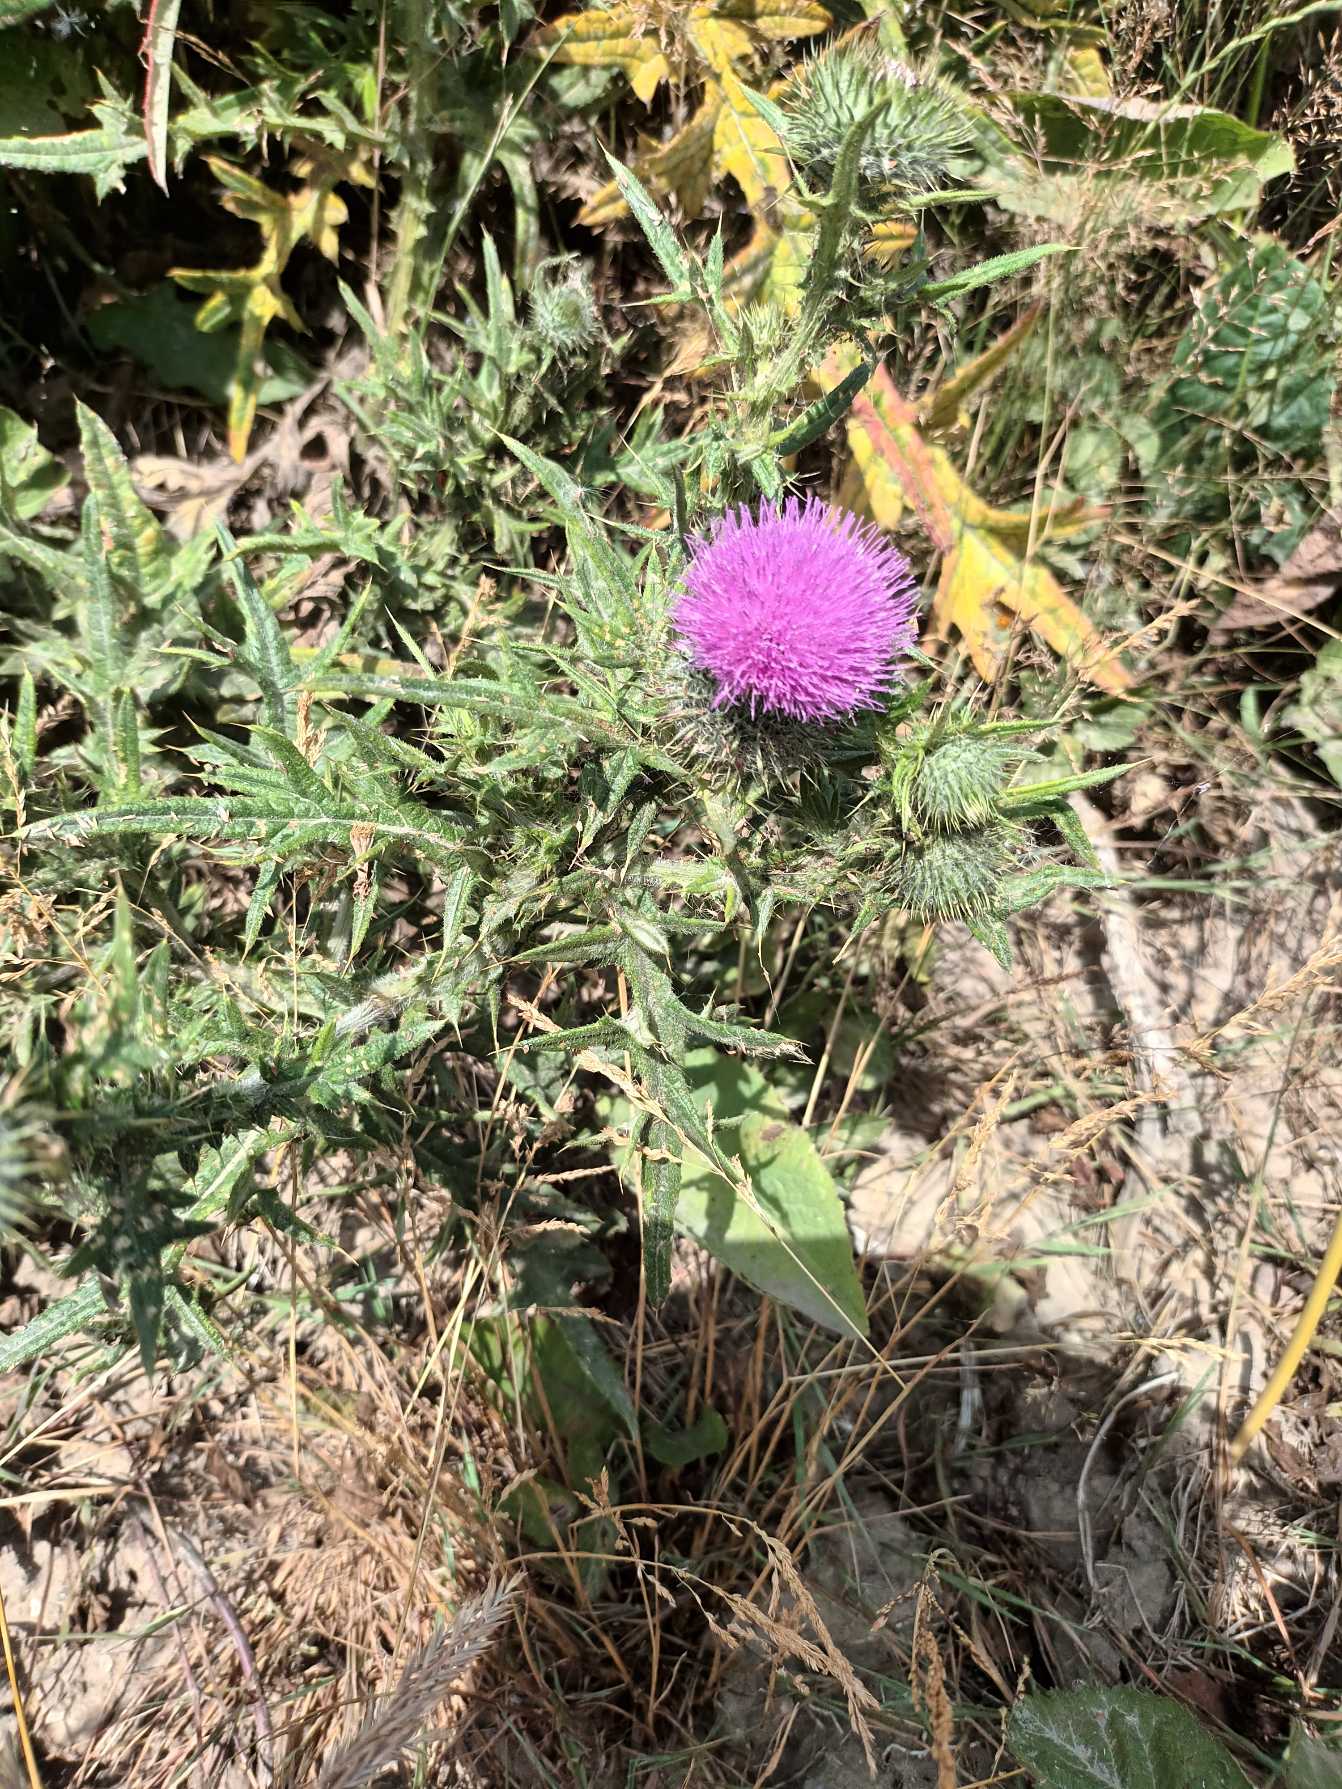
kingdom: Plantae
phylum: Tracheophyta
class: Magnoliopsida
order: Asterales
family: Asteraceae
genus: Cirsium
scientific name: Cirsium vulgare
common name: Horse-tidsel
